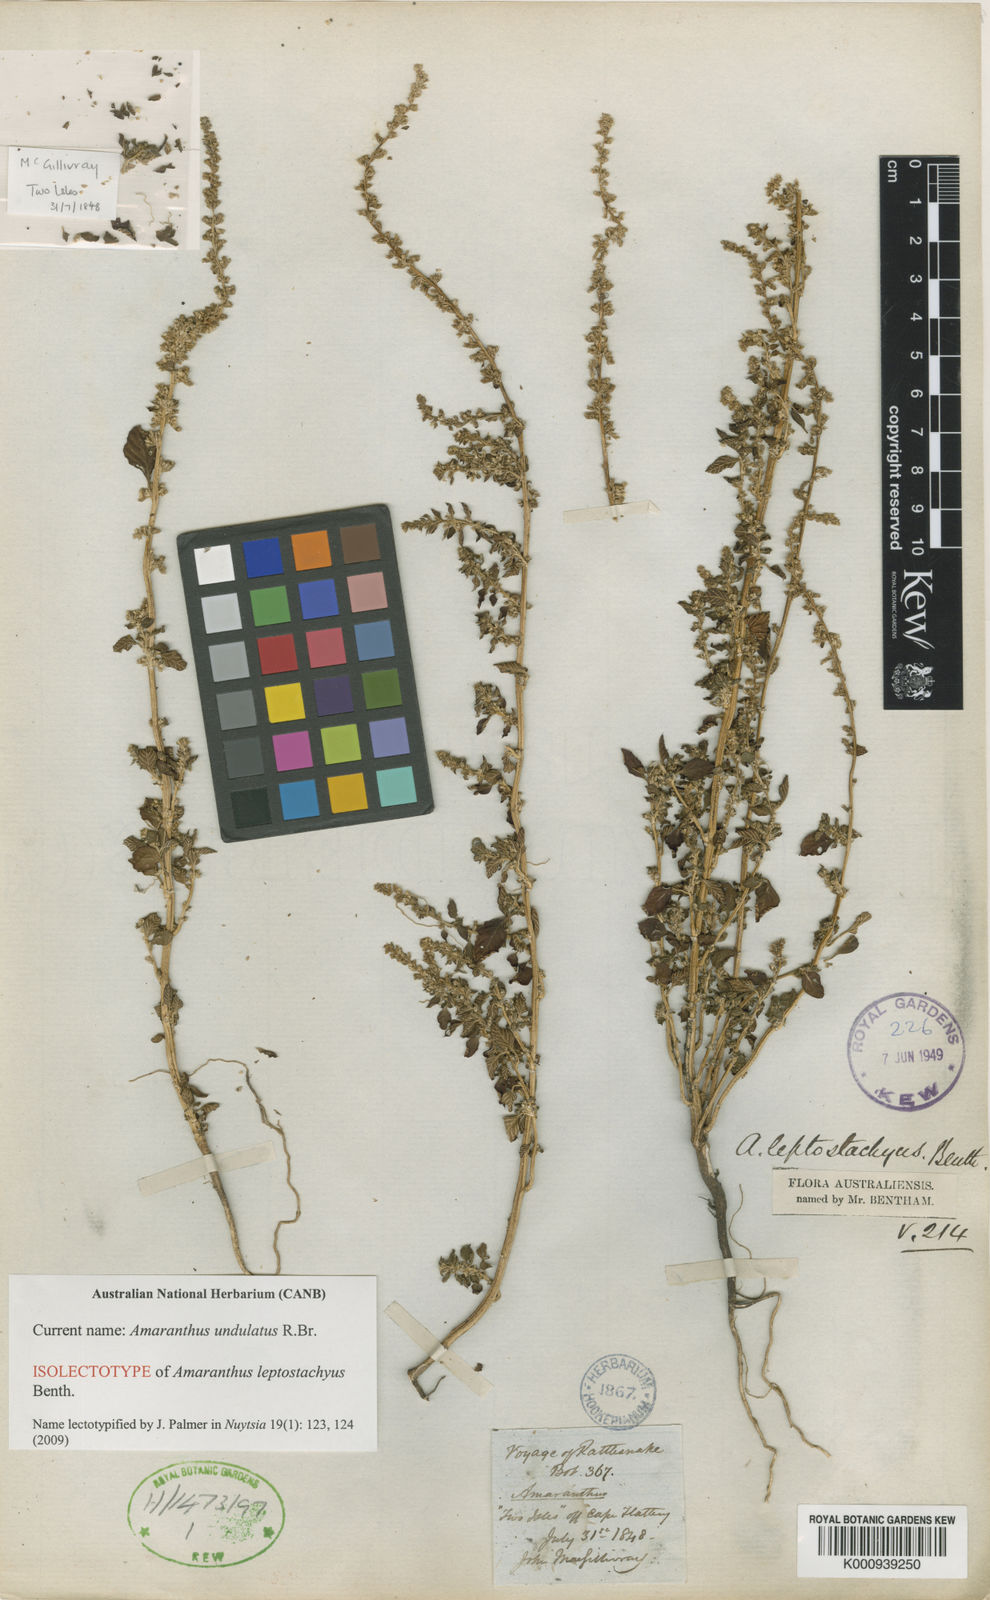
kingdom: Plantae
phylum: Tracheophyta
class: Magnoliopsida
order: Caryophyllales
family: Amaranthaceae
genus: Amaranthus
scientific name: Amaranthus undulatus
